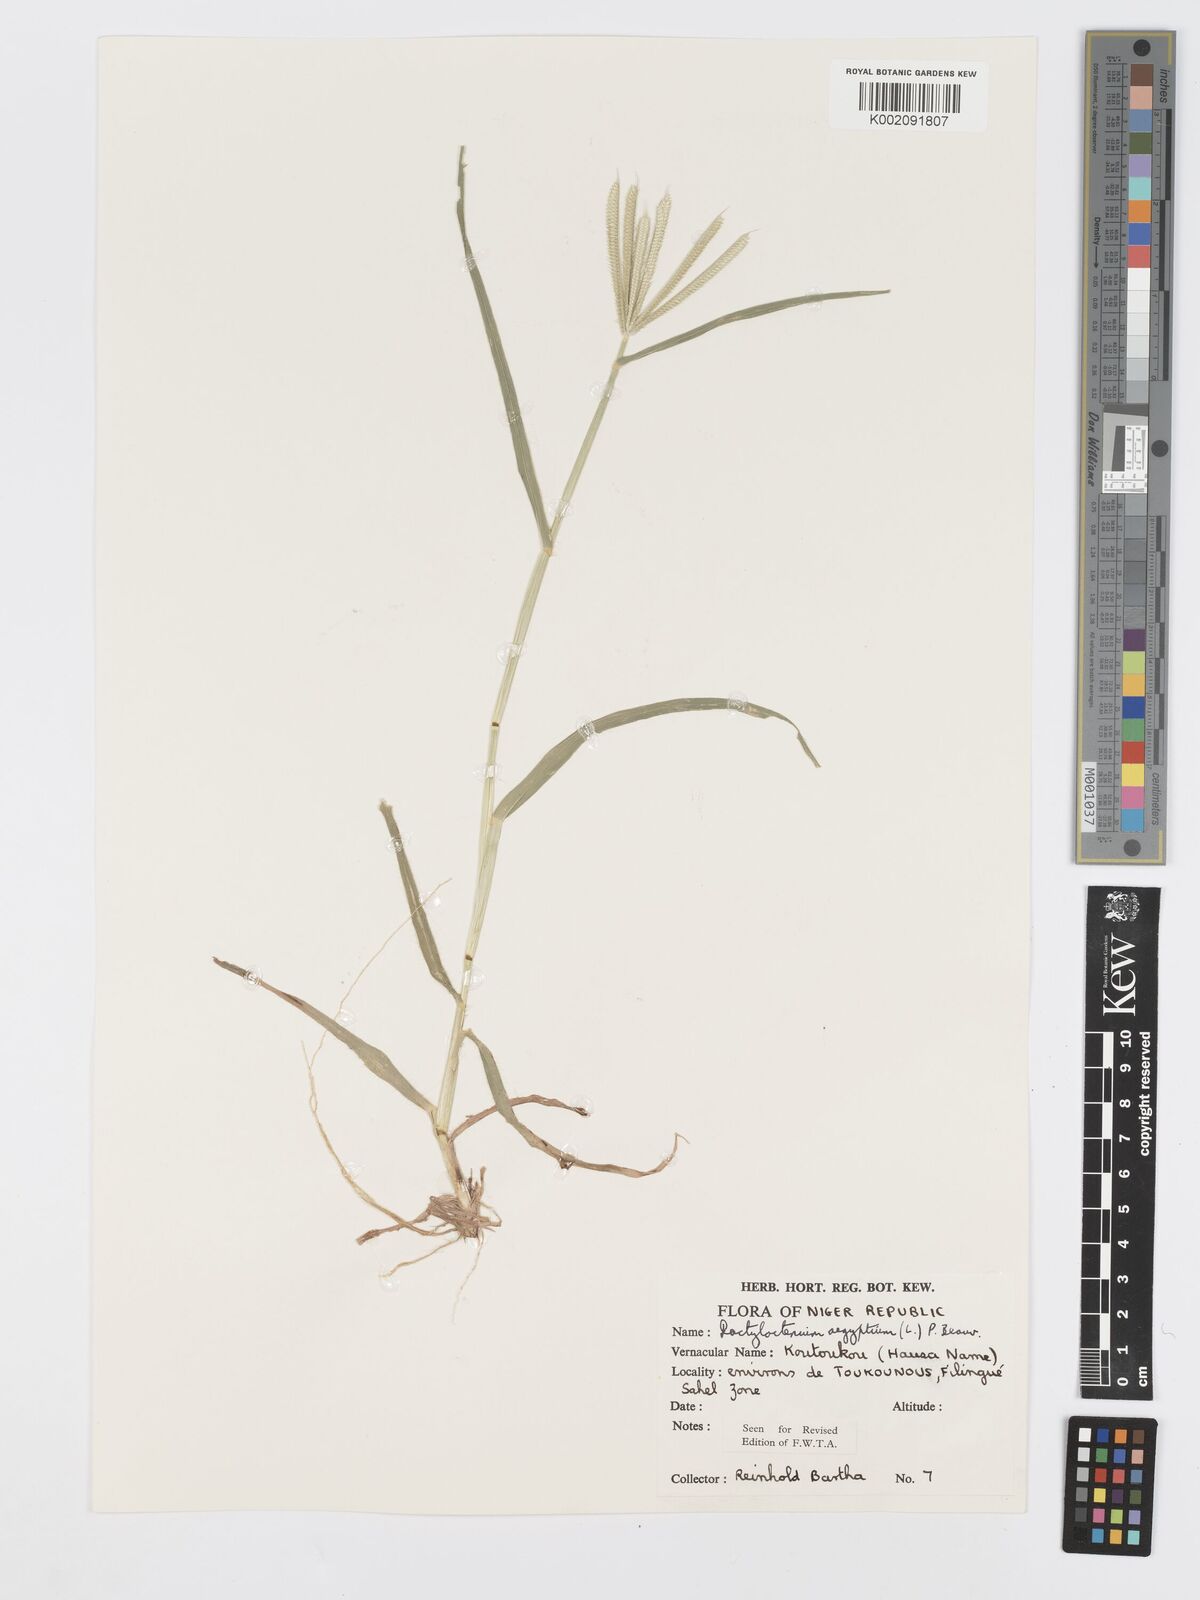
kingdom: Plantae
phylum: Tracheophyta
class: Liliopsida
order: Poales
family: Poaceae
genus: Dactyloctenium
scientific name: Dactyloctenium aegyptium
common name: Egyptian grass
